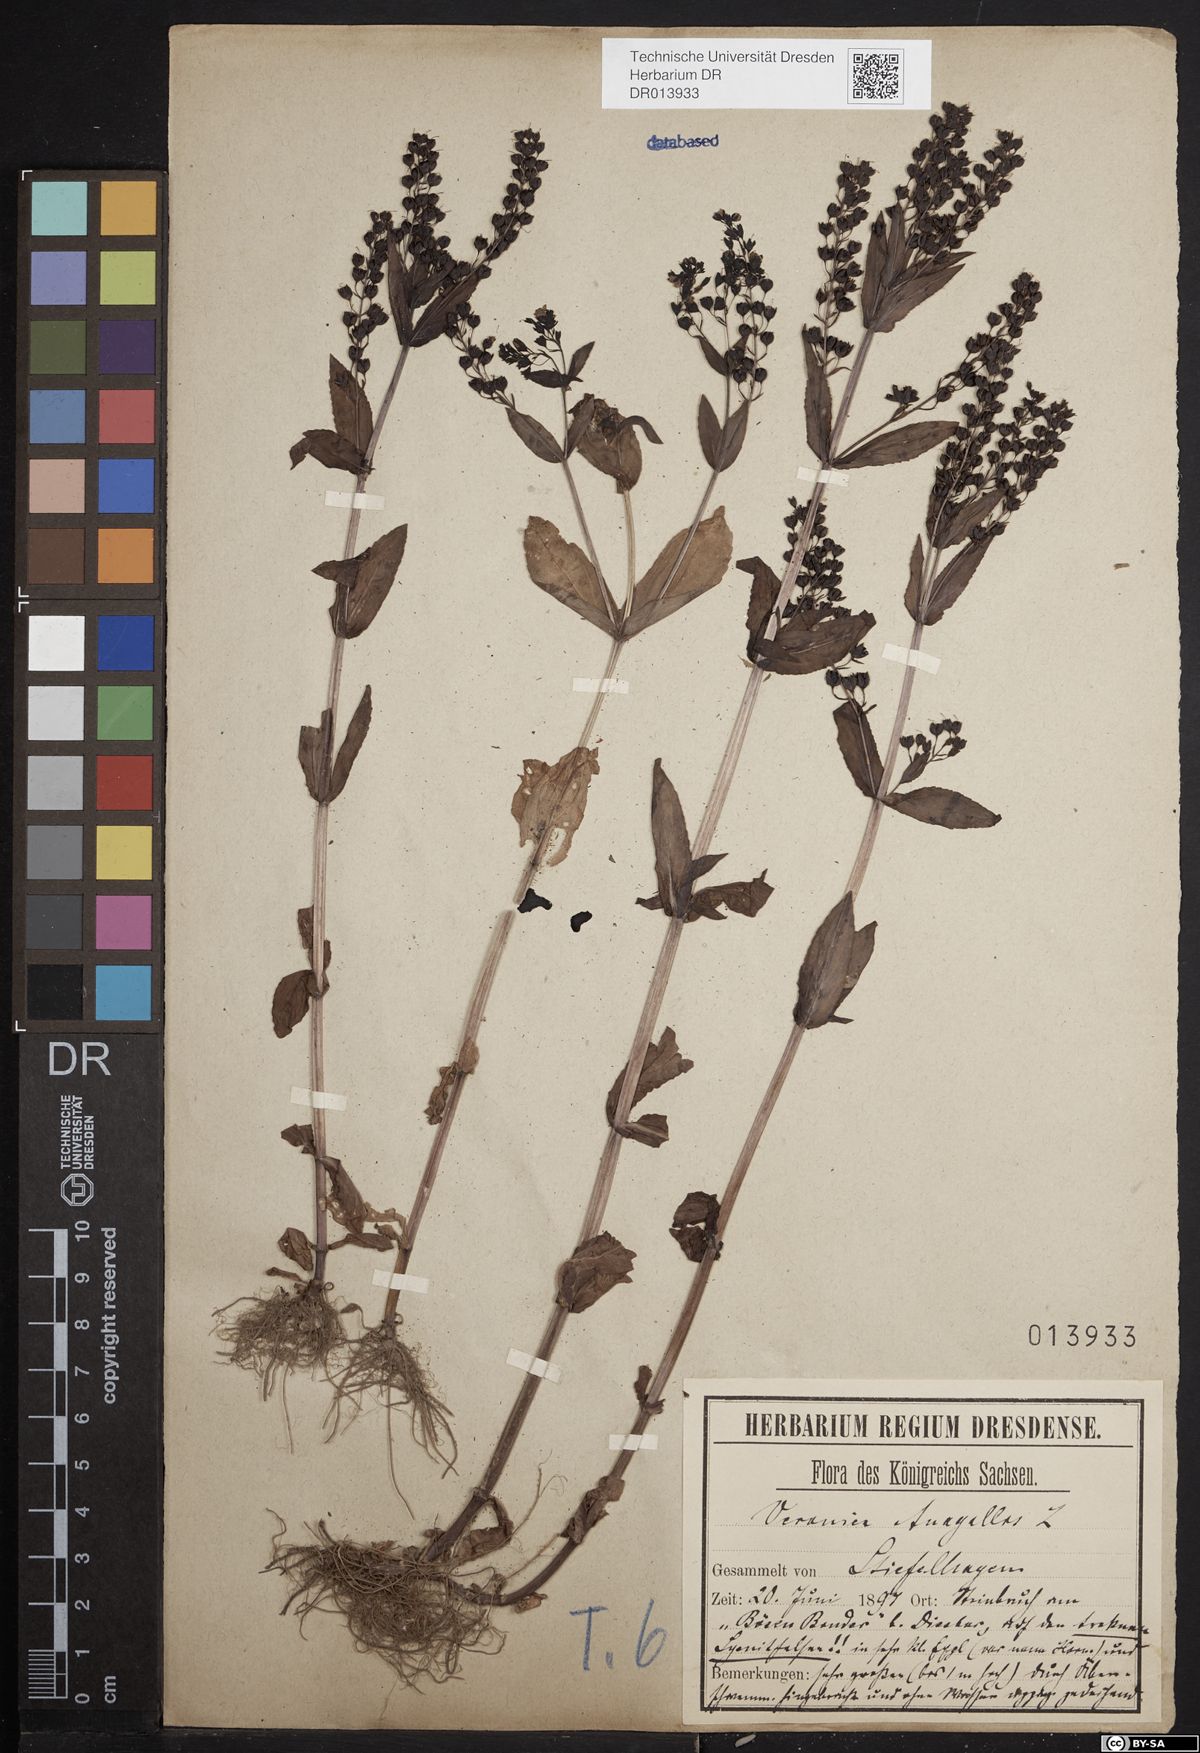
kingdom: Plantae
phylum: Tracheophyta
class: Magnoliopsida
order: Lamiales
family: Plantaginaceae
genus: Veronica
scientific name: Veronica anagallis-aquatica
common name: Water speedwell
